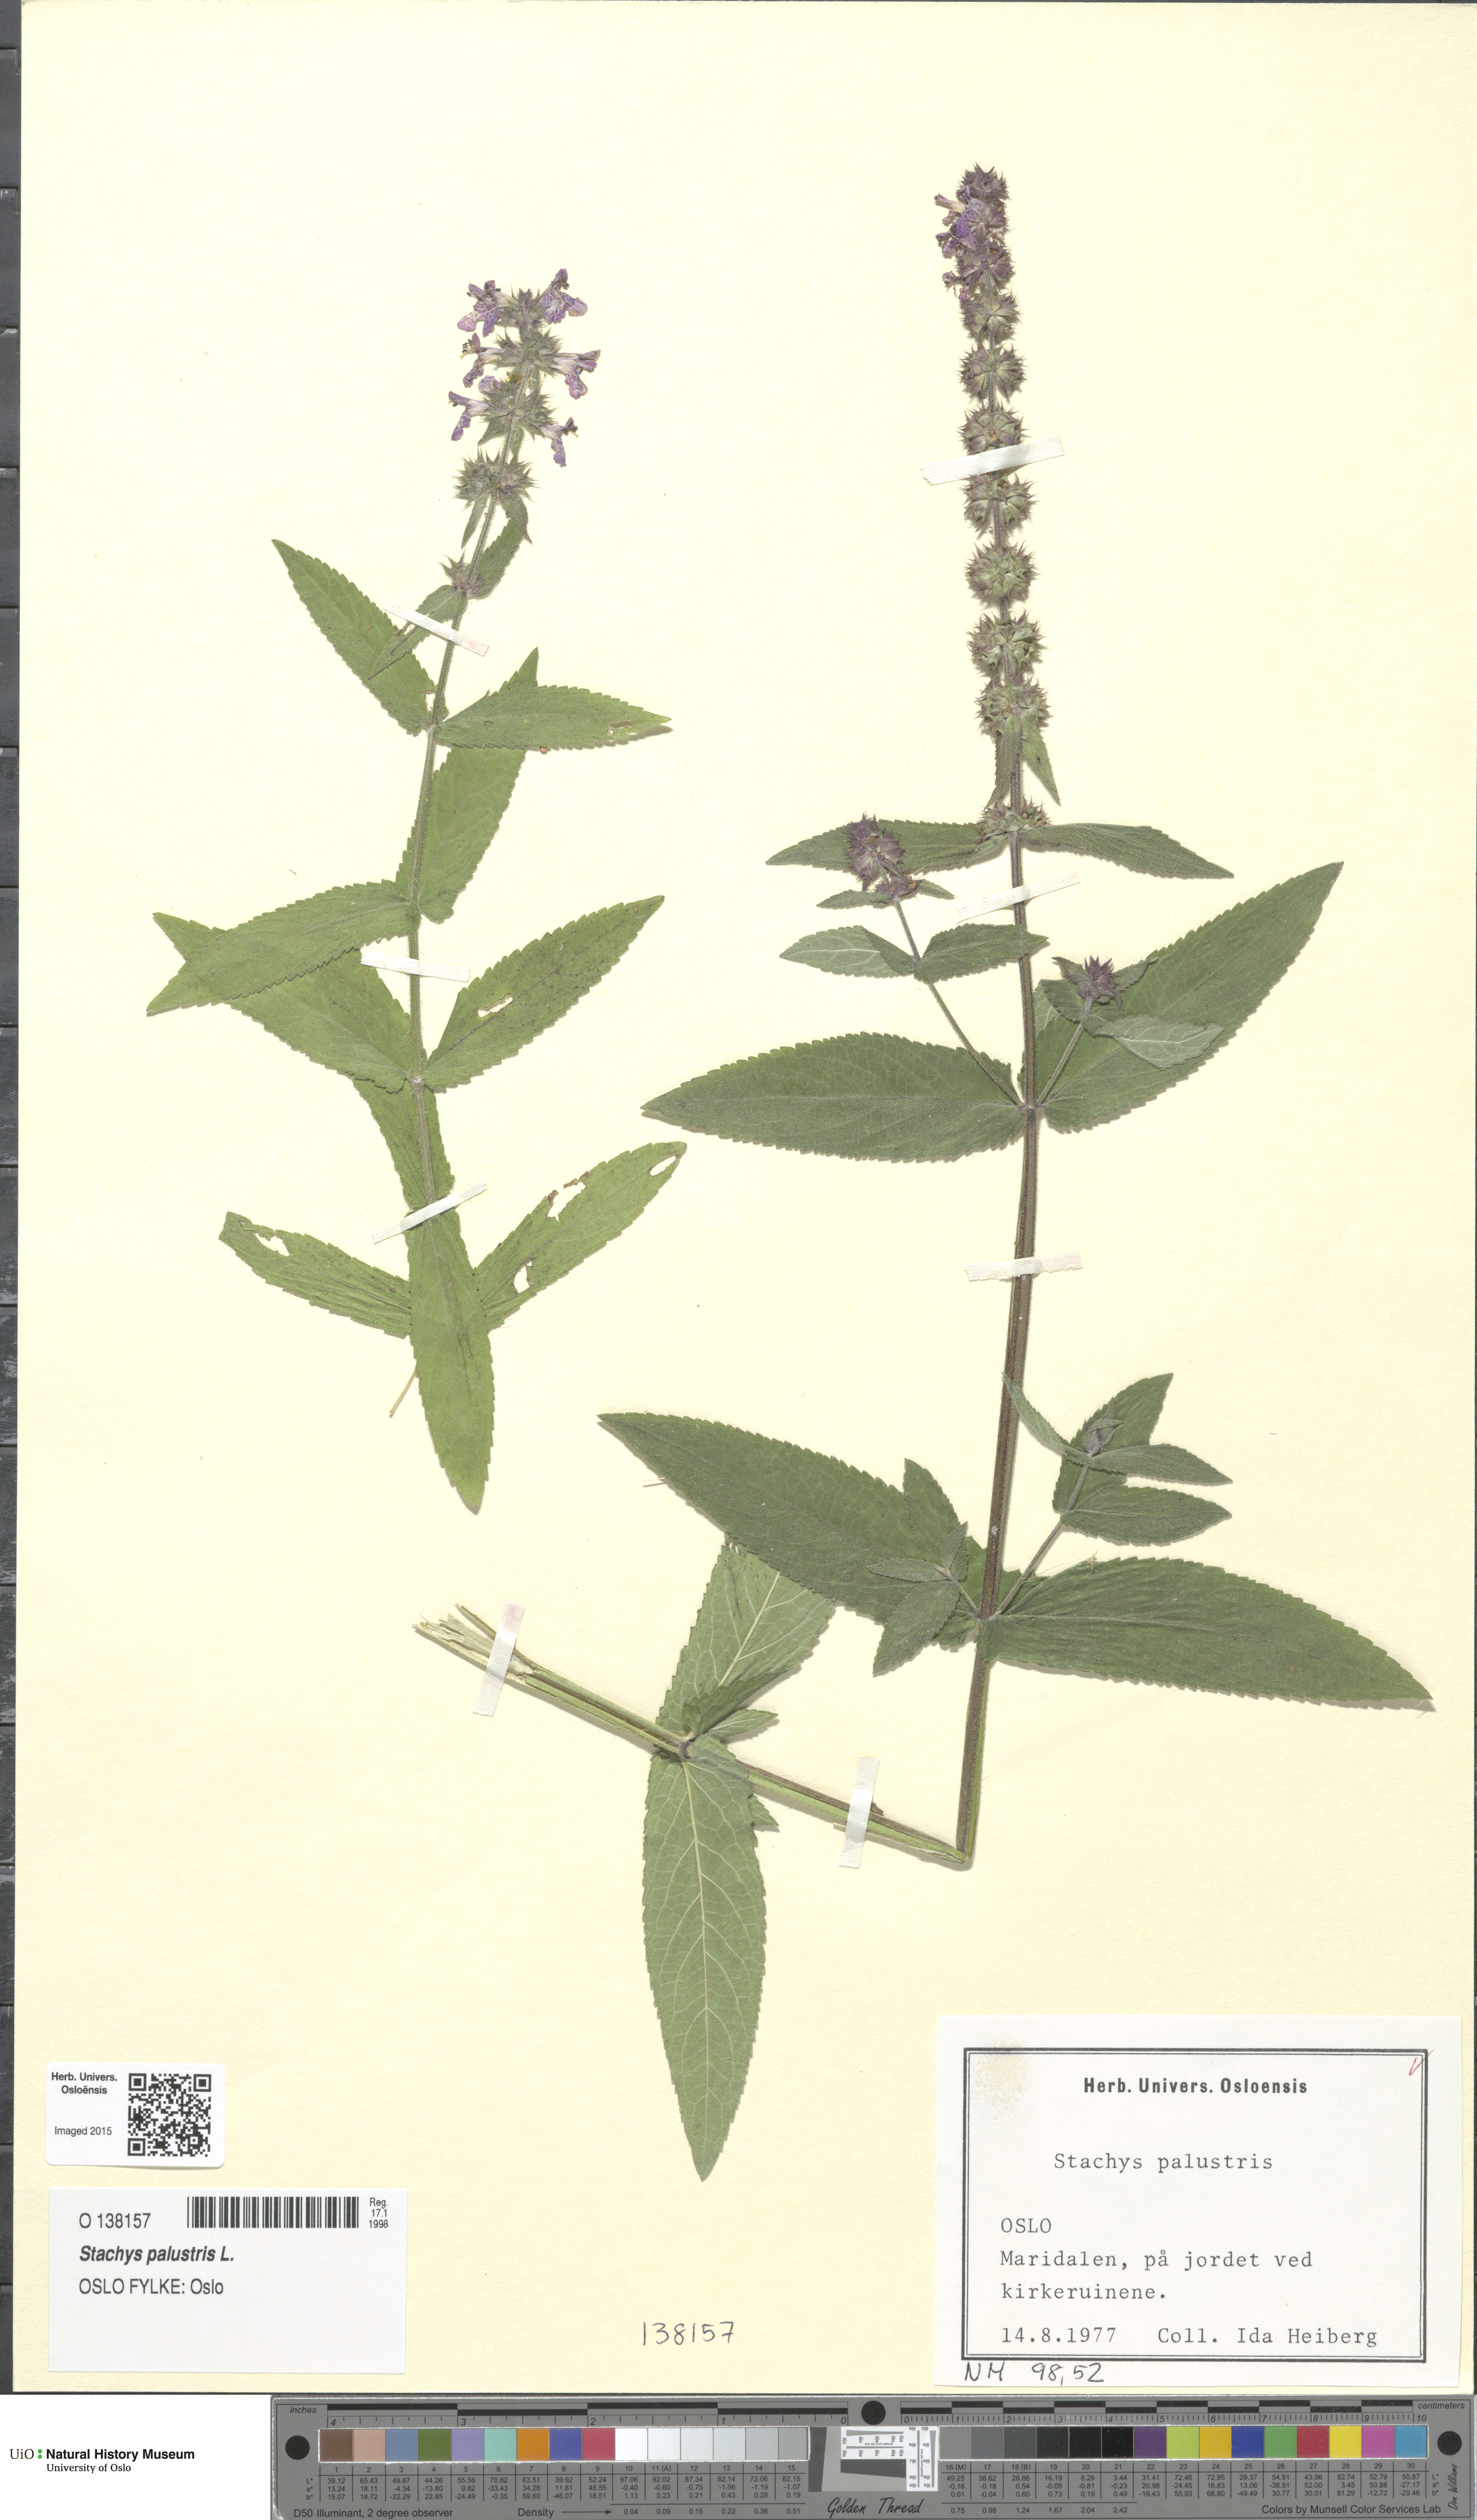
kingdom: Plantae
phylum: Tracheophyta
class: Magnoliopsida
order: Lamiales
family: Lamiaceae
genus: Stachys
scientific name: Stachys palustris
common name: Marsh woundwort
